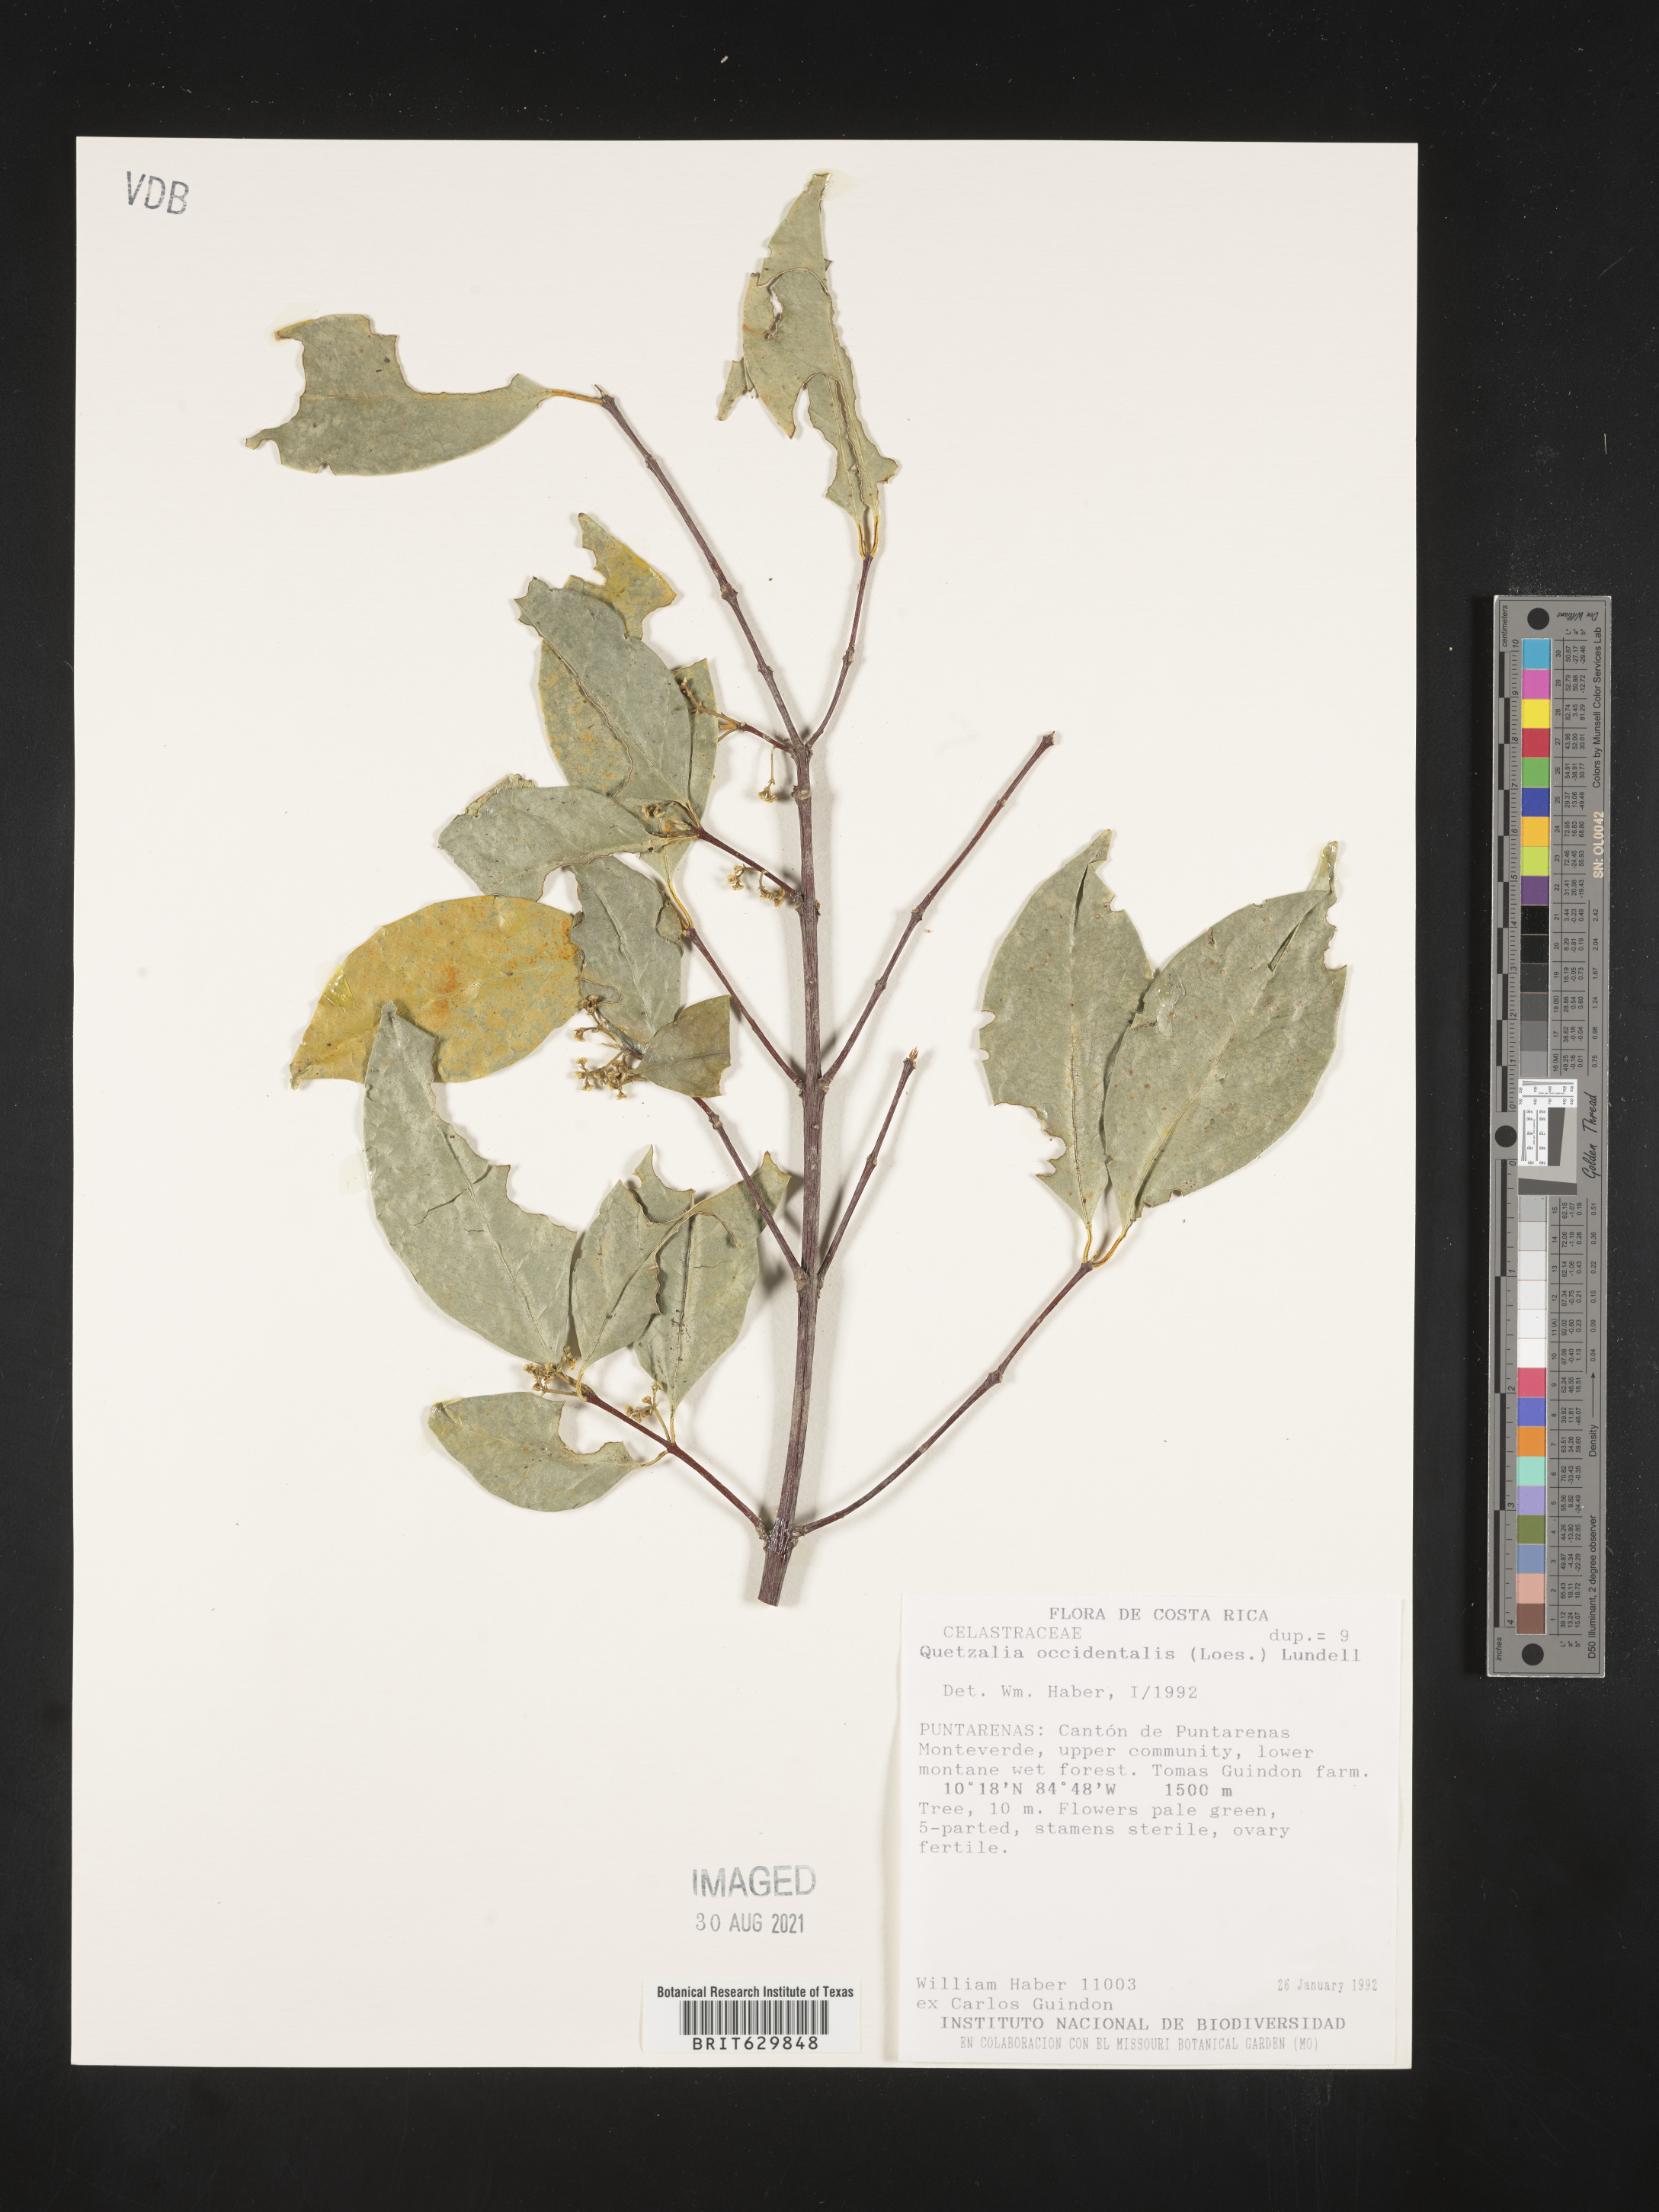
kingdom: Plantae
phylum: Tracheophyta
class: Magnoliopsida
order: Celastrales
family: Celastraceae
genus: Quetzalia
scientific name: Quetzalia occidentalis
